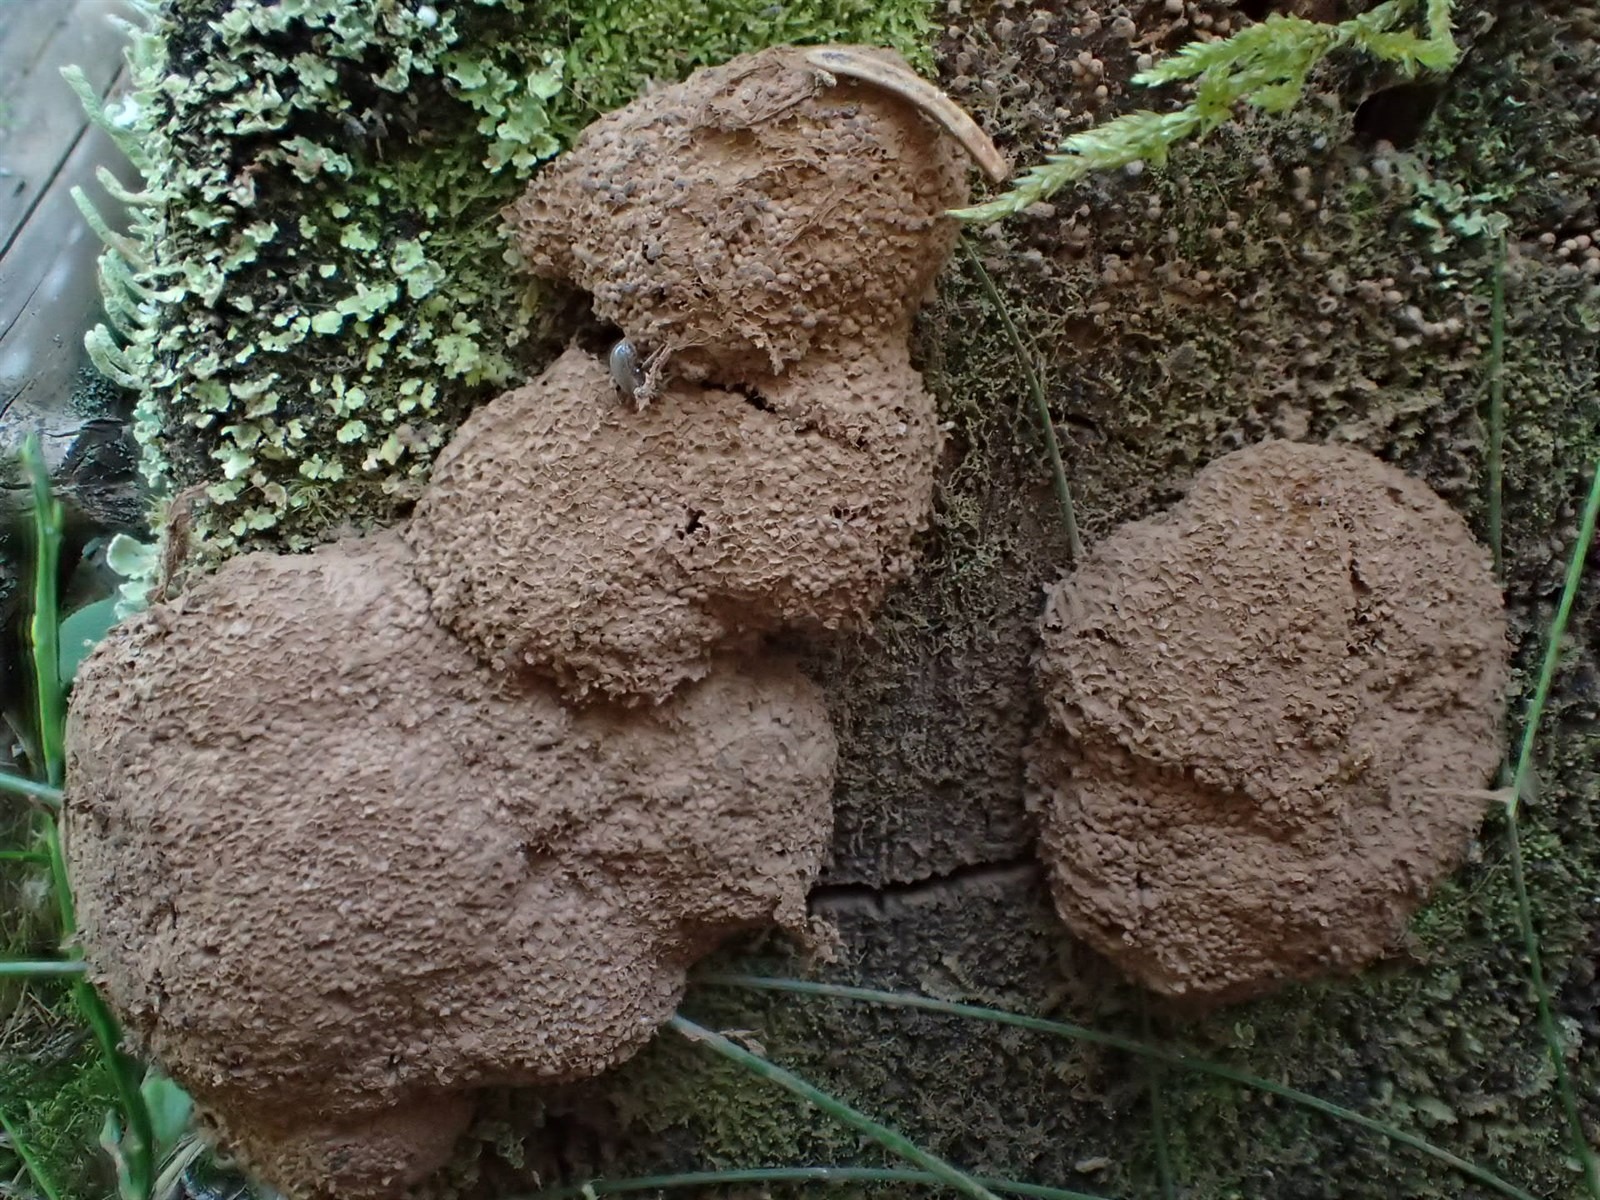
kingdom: Protozoa
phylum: Mycetozoa
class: Myxomycetes
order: Cribrariales
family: Tubiferaceae
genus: Tubifera
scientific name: Tubifera
